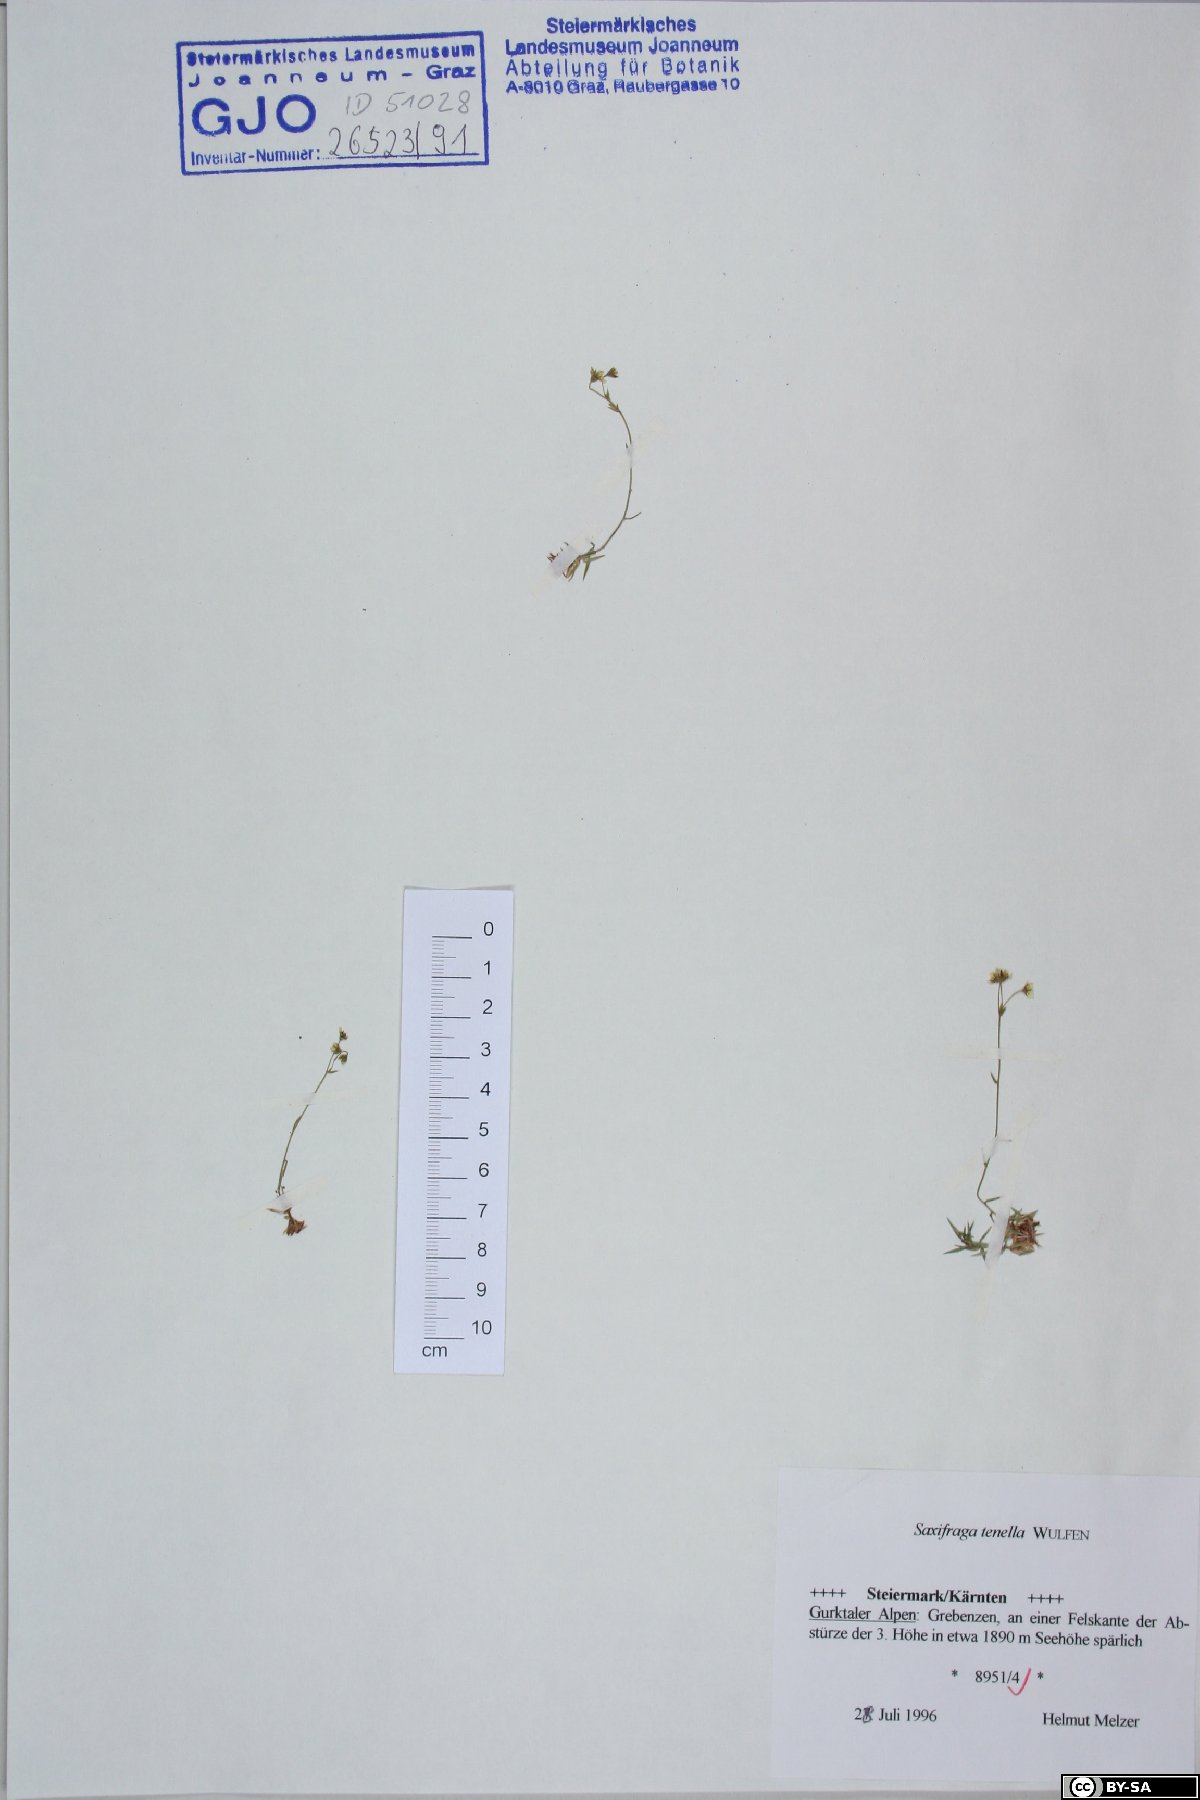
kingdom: Plantae
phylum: Tracheophyta
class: Magnoliopsida
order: Saxifragales
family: Saxifragaceae
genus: Saxifraga
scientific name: Saxifraga tenella
